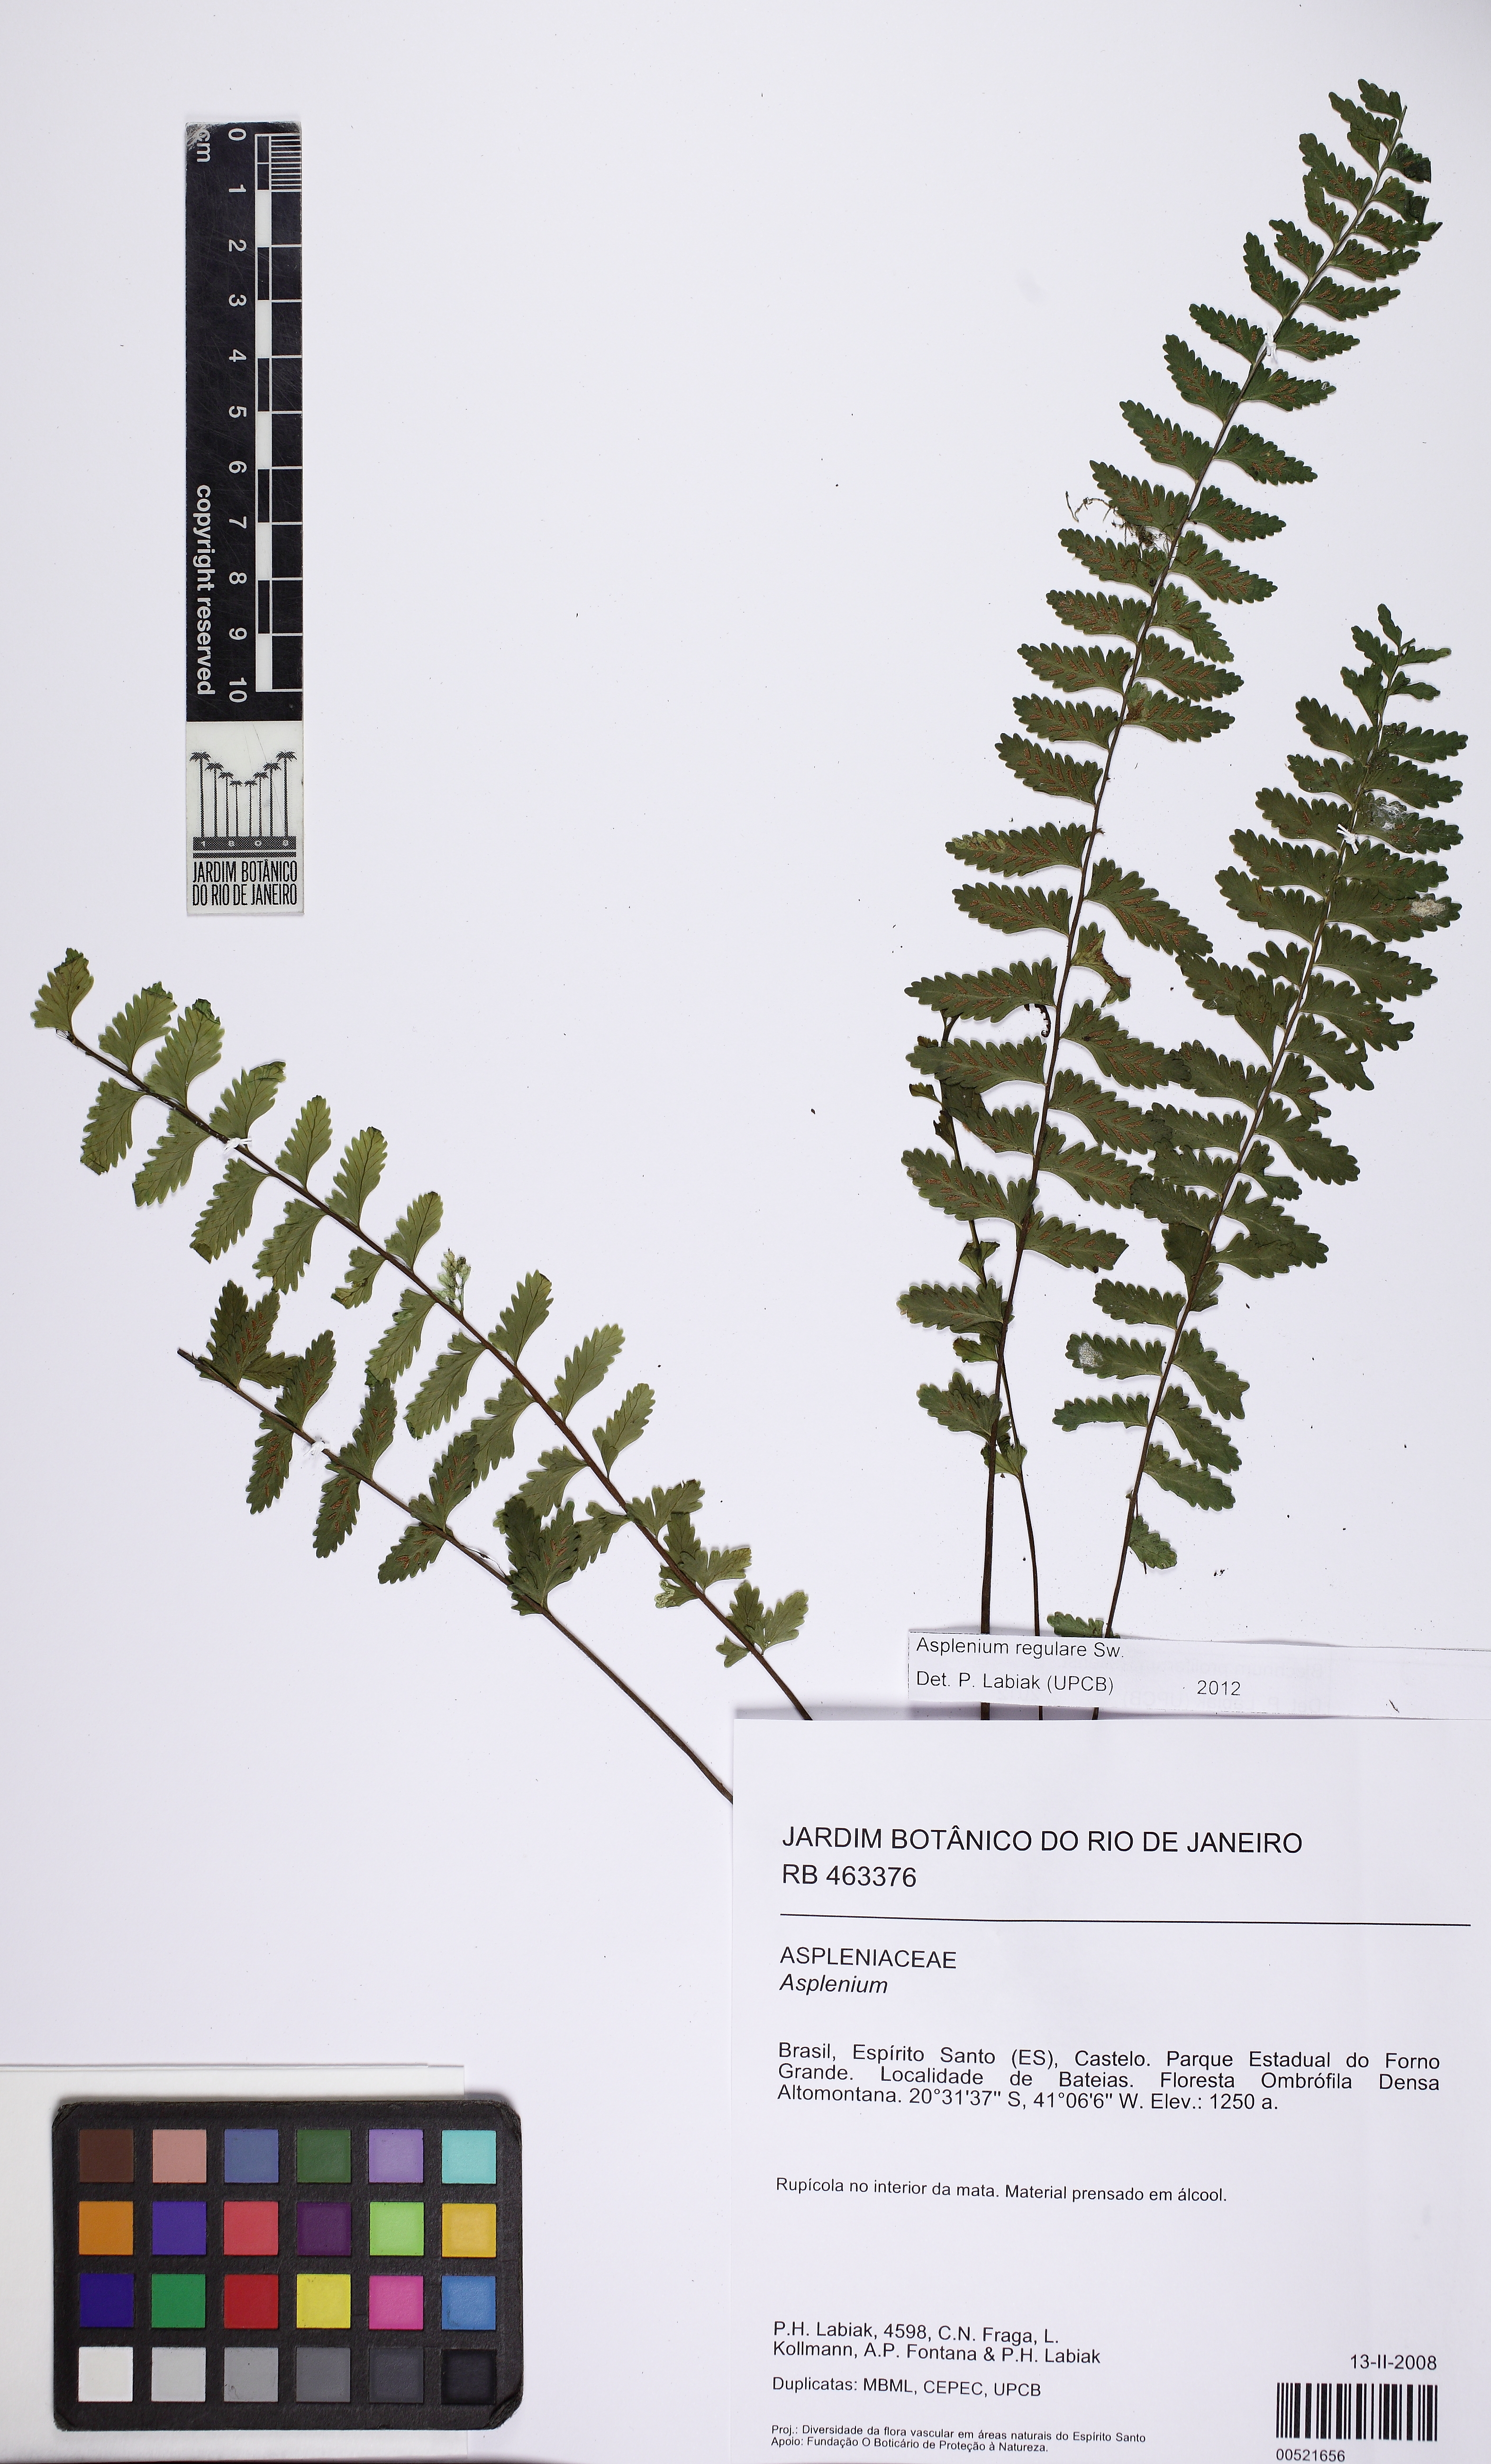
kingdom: Plantae
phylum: Tracheophyta
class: Polypodiopsida
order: Polypodiales
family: Aspleniaceae
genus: Asplenium
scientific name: Asplenium regulare
